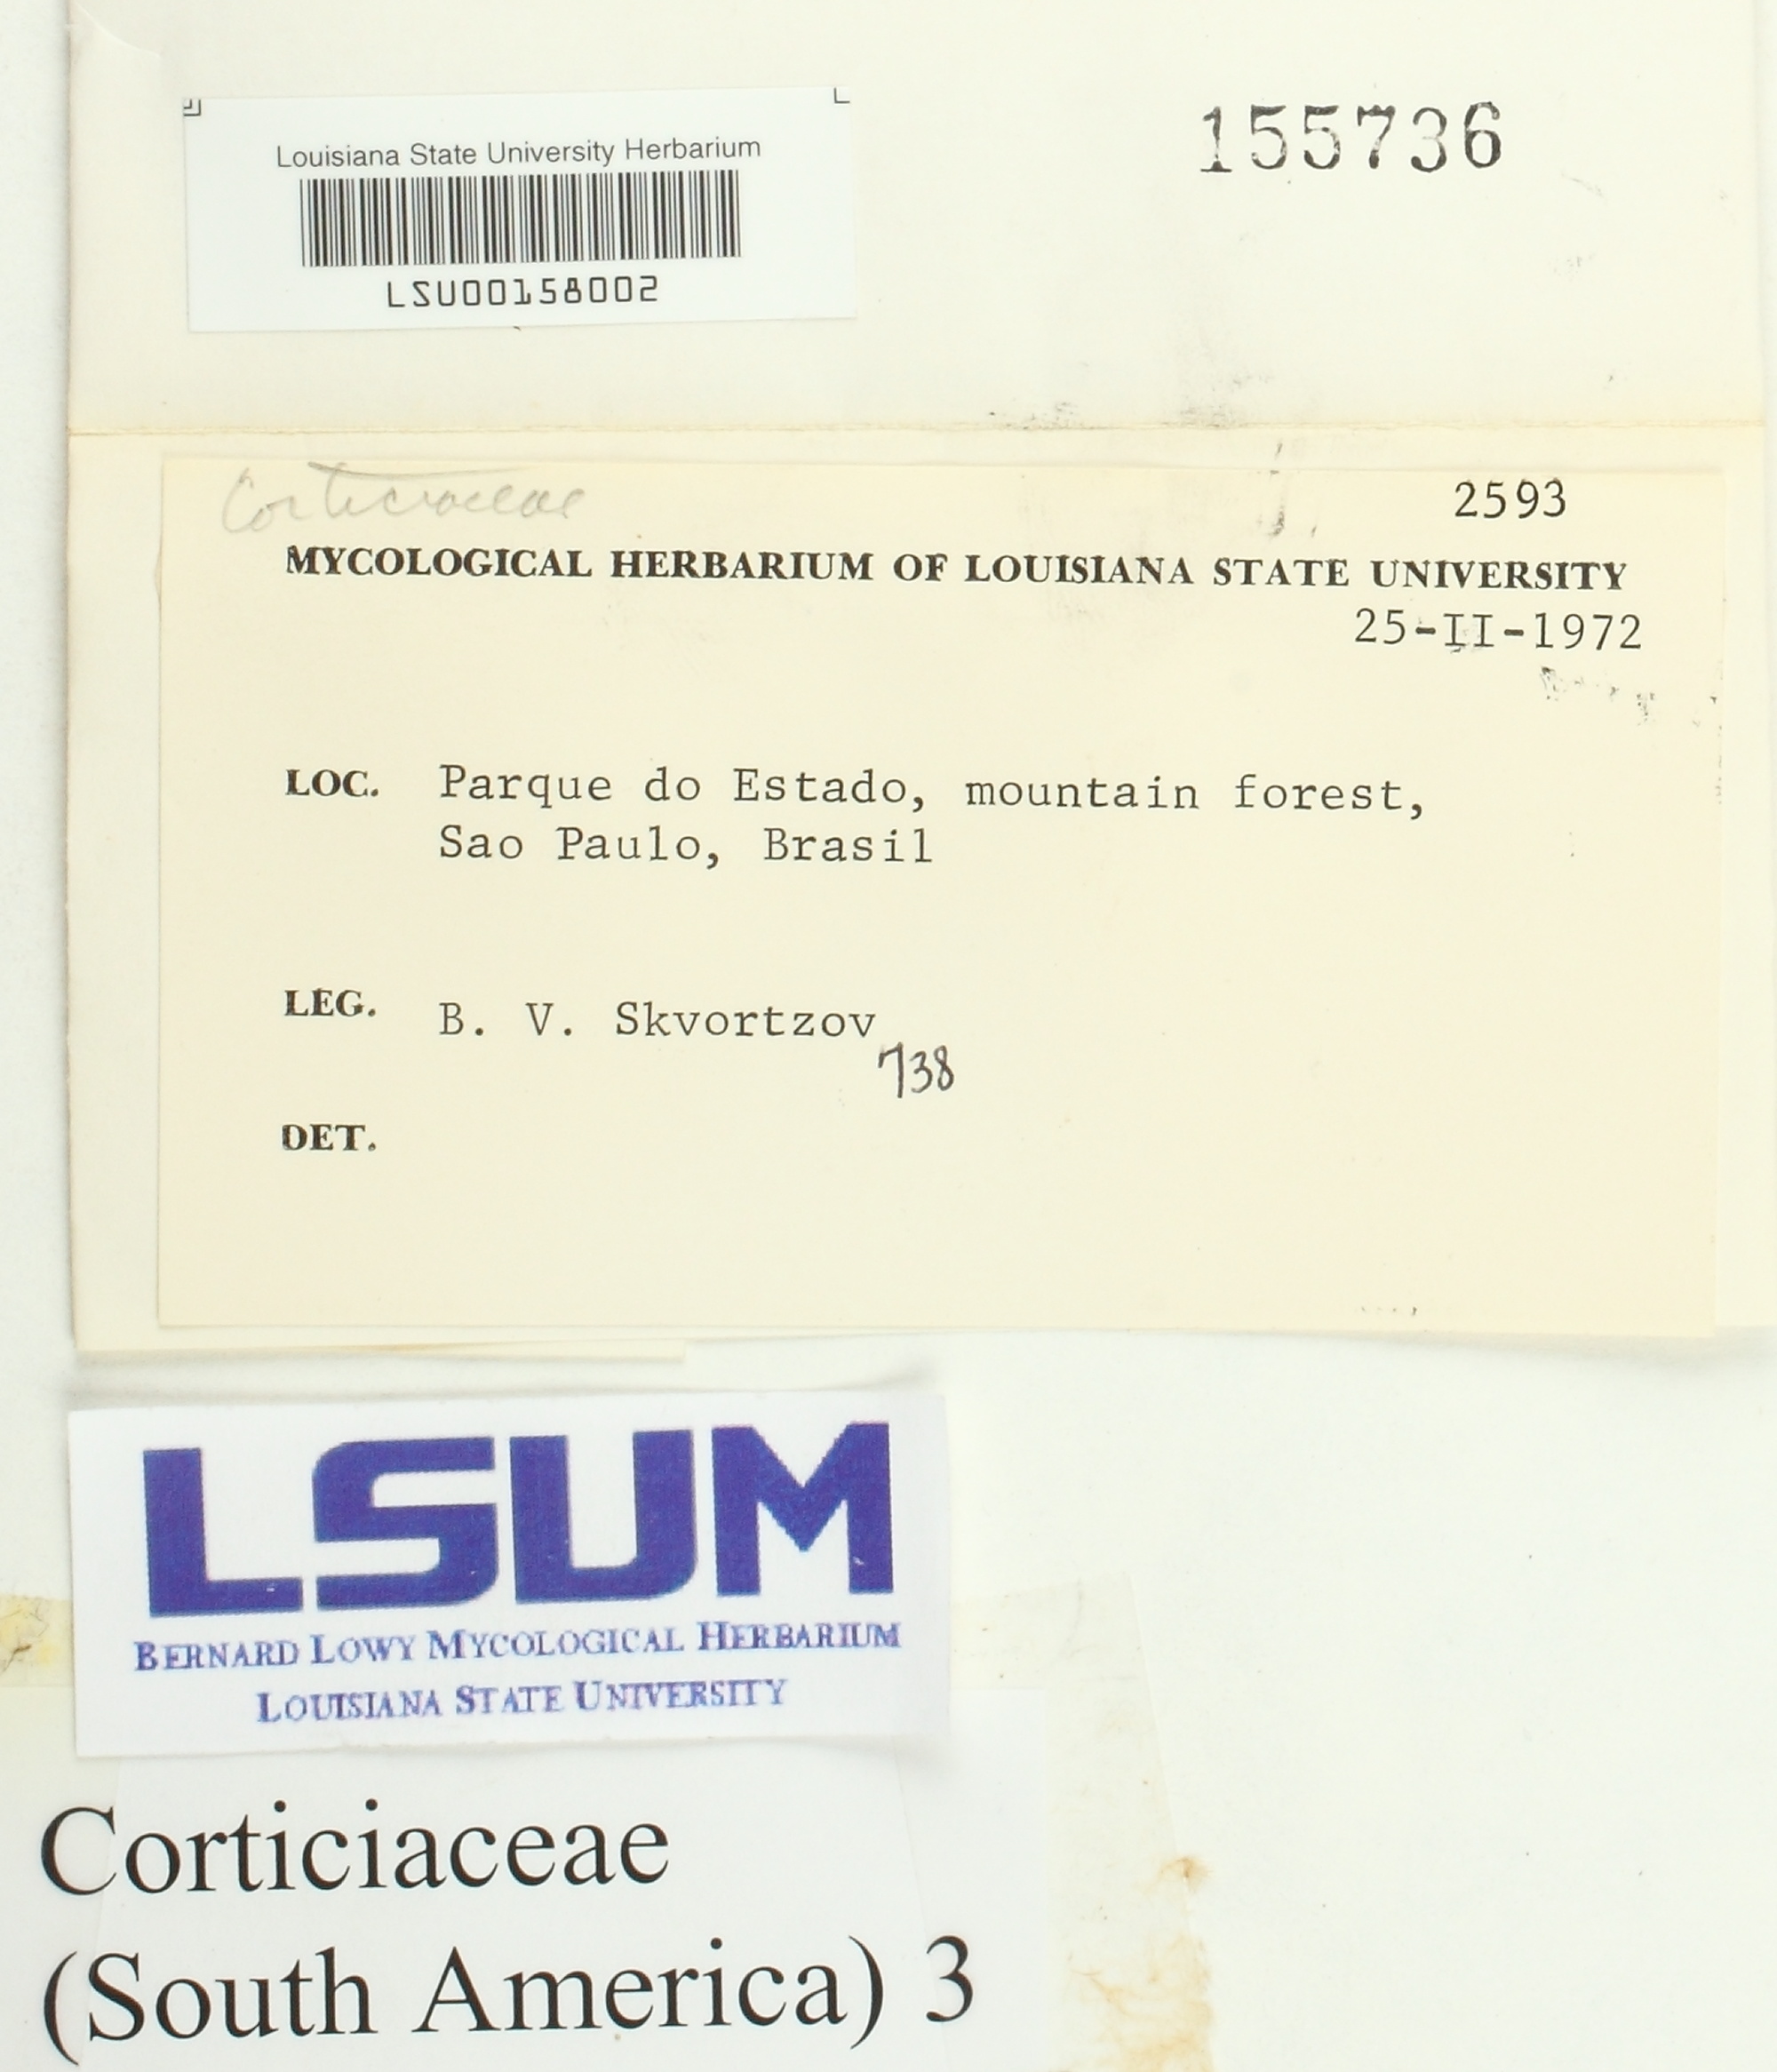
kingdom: Fungi
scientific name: Fungi
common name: Fungi
